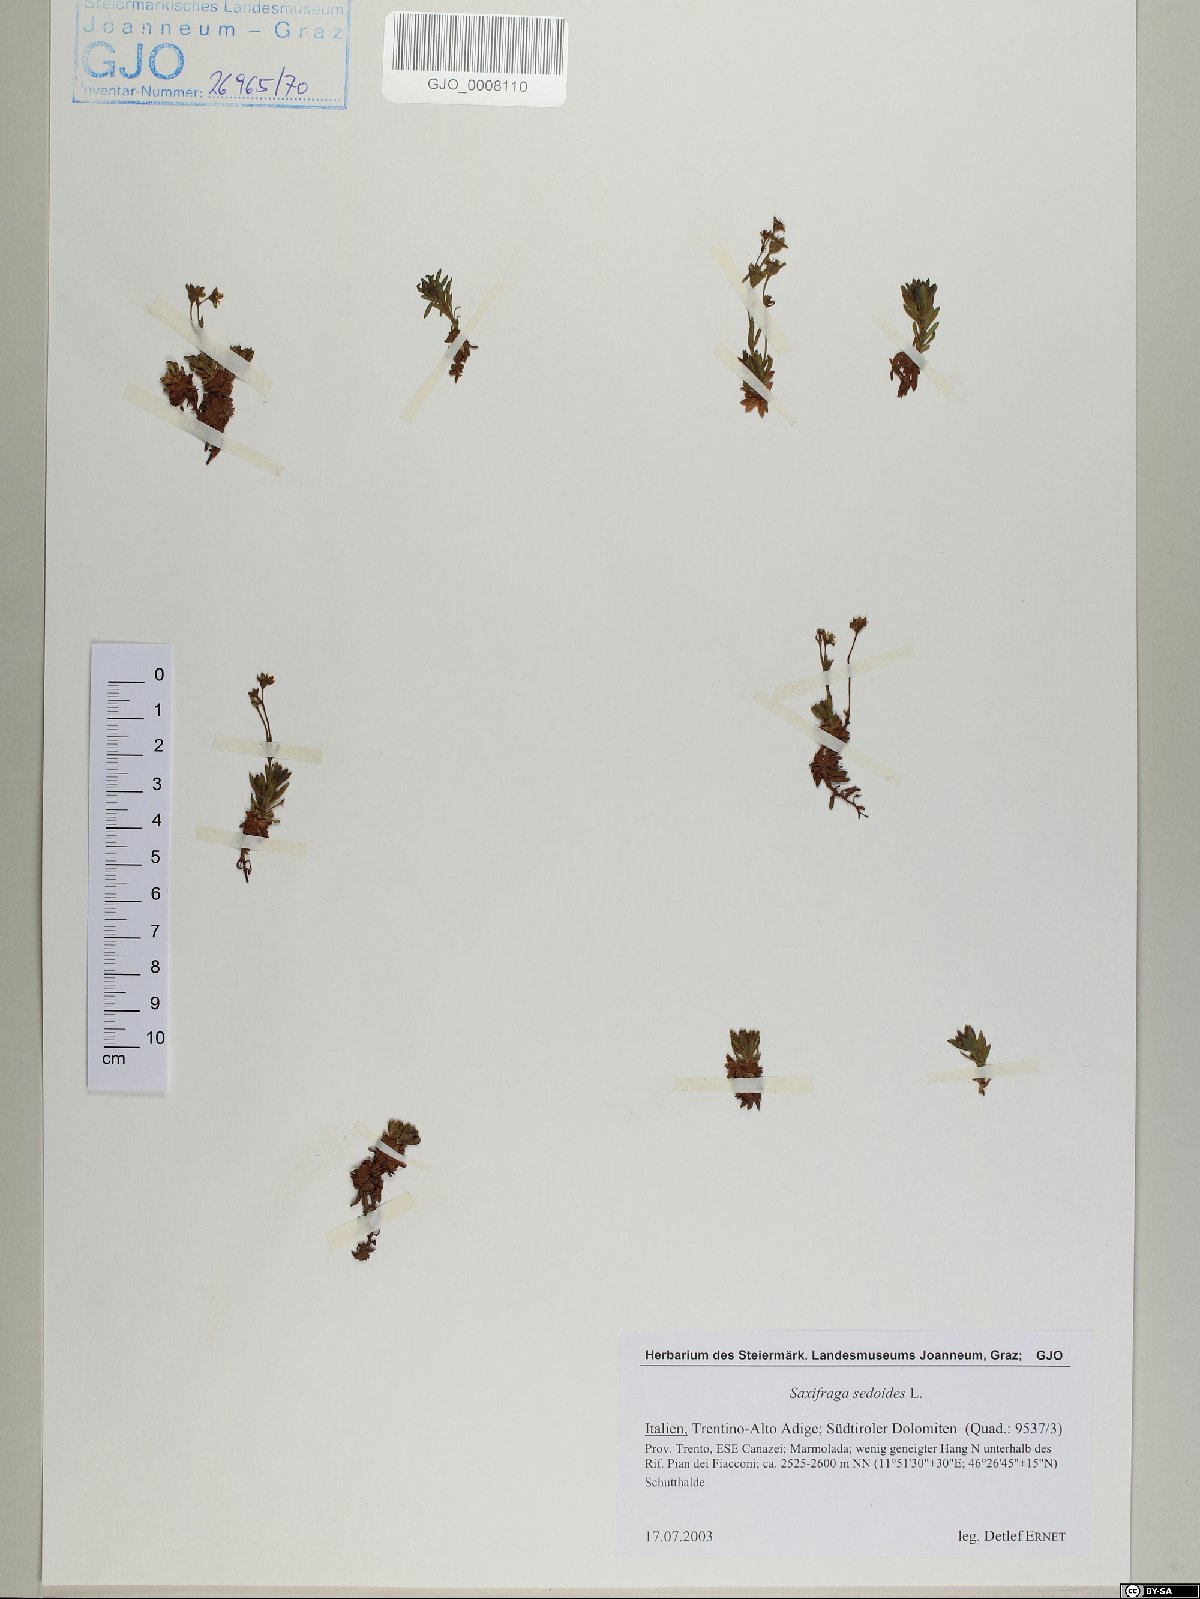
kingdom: Plantae
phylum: Tracheophyta
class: Magnoliopsida
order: Saxifragales
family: Saxifragaceae
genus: Saxifraga
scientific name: Saxifraga sedoides
